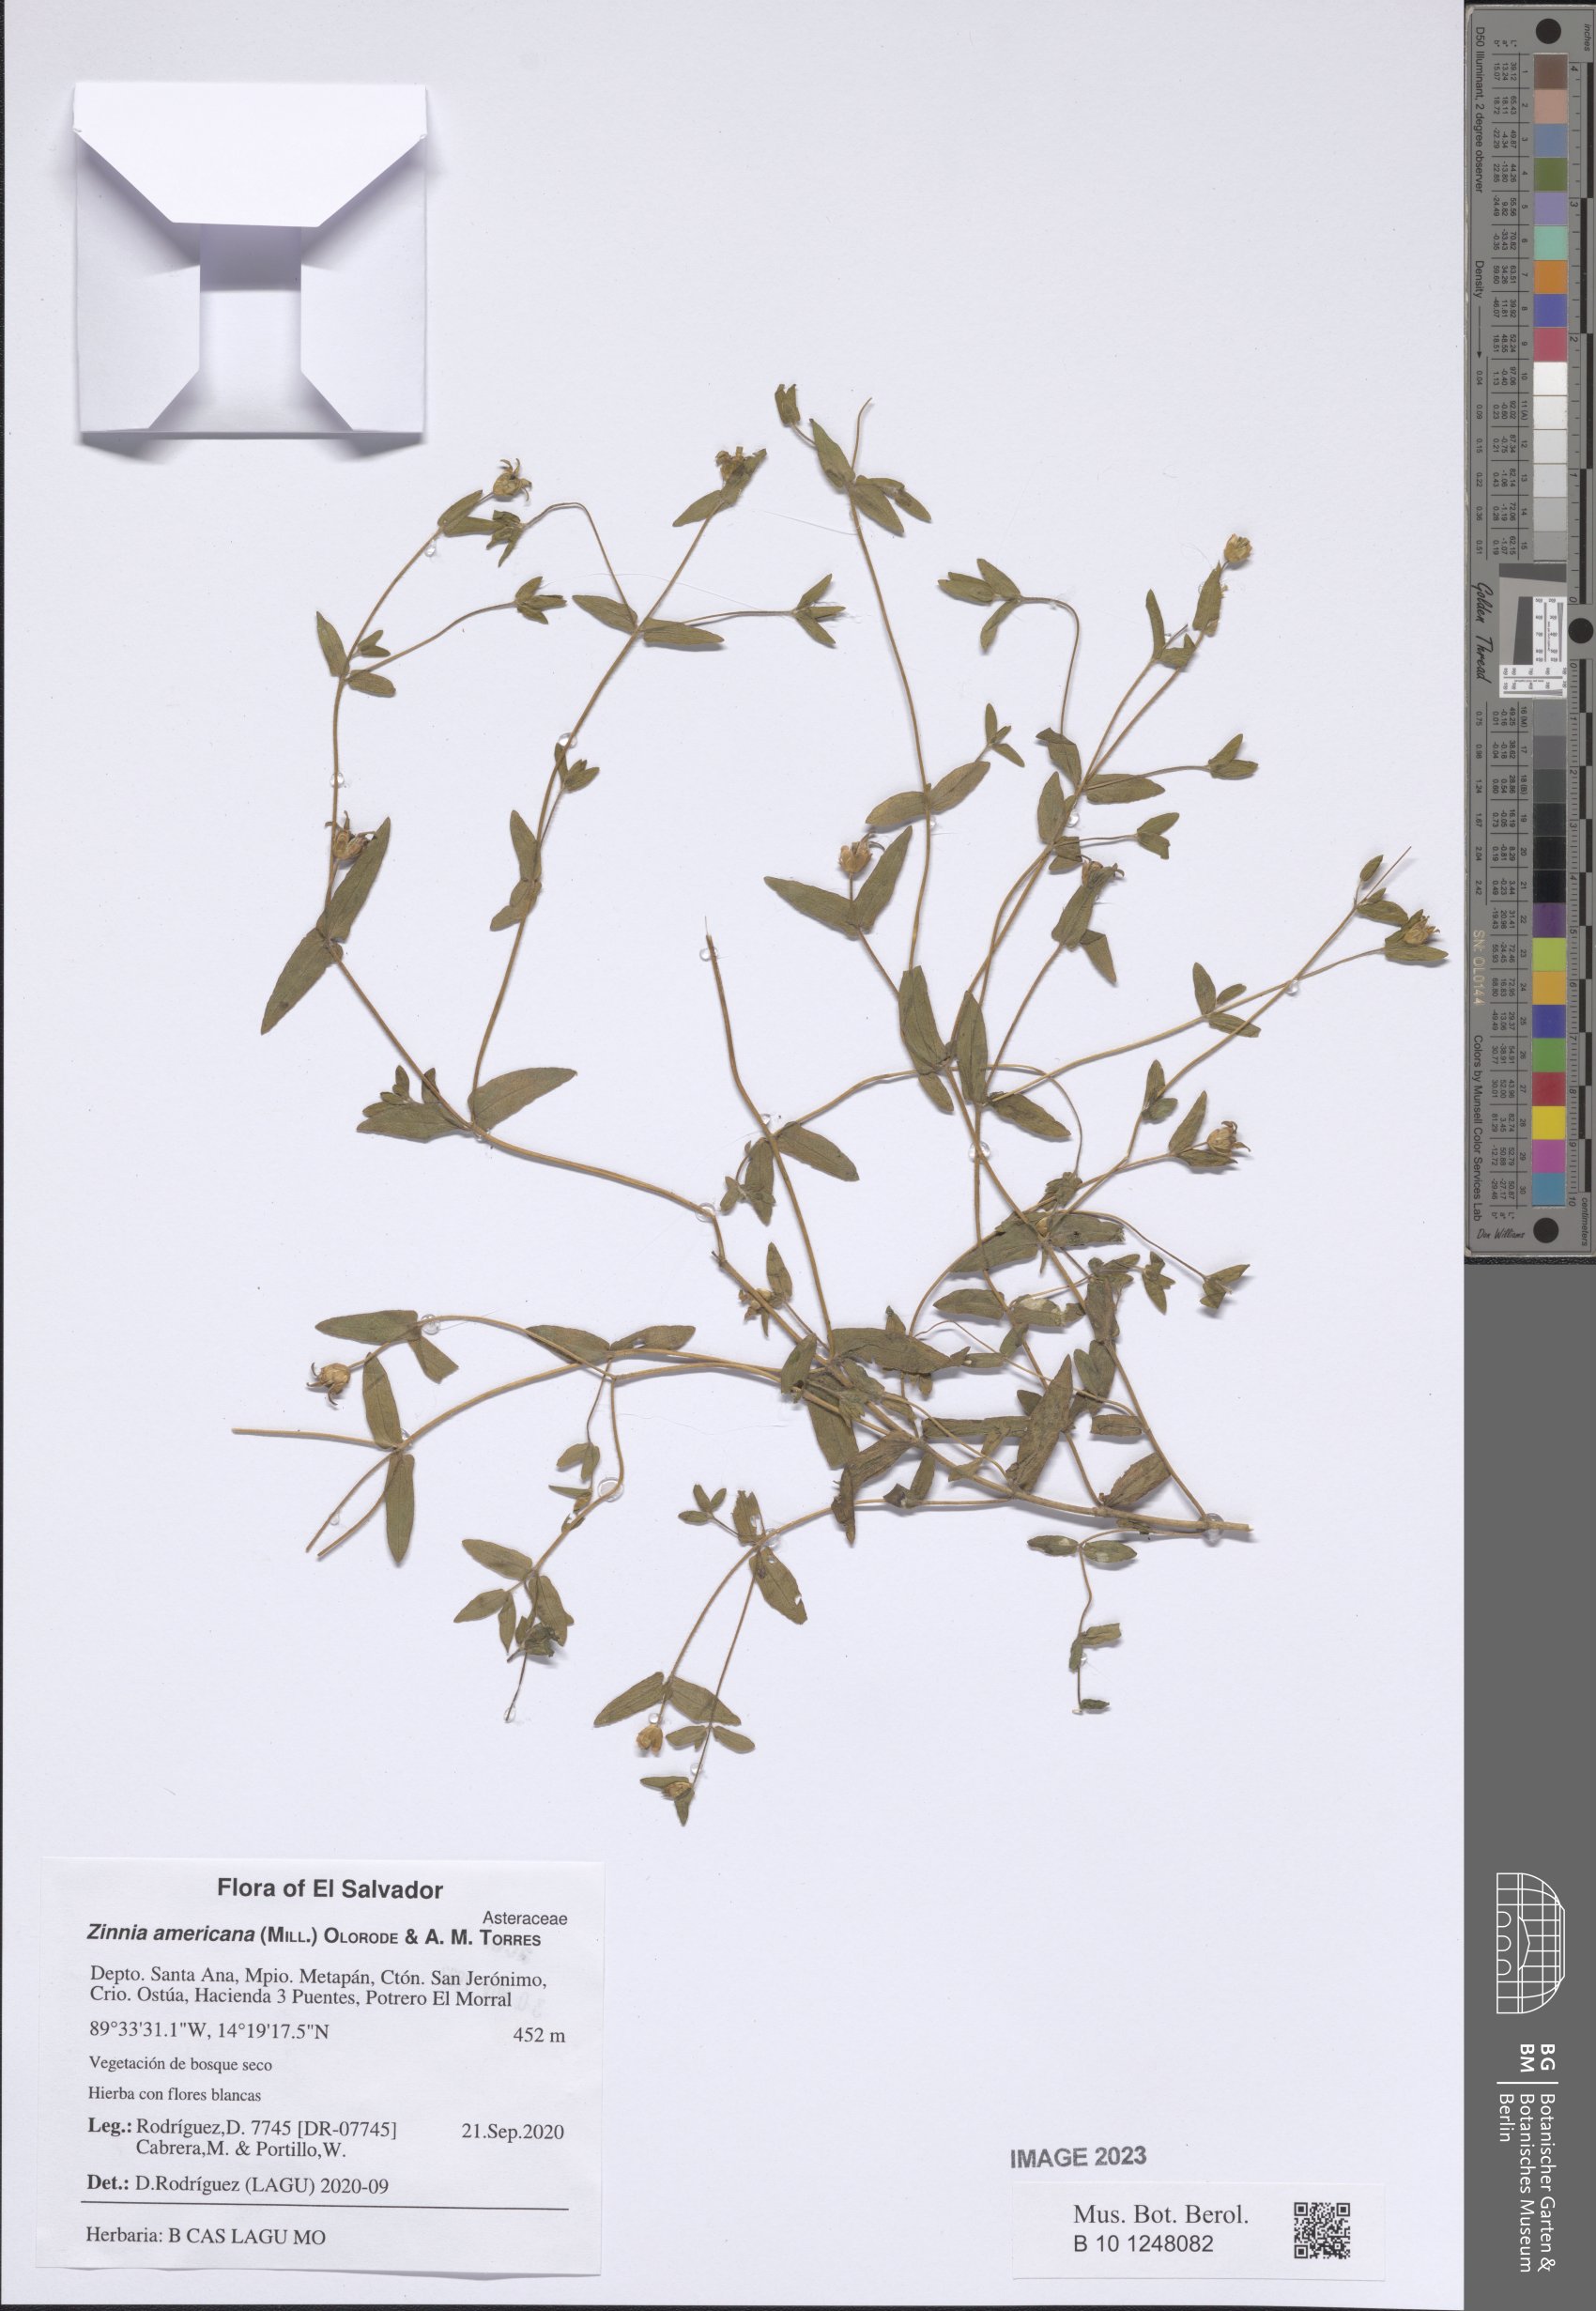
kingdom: Plantae
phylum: Tracheophyta
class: Magnoliopsida
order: Asterales
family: Asteraceae
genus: Zinnia
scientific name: Zinnia americana
